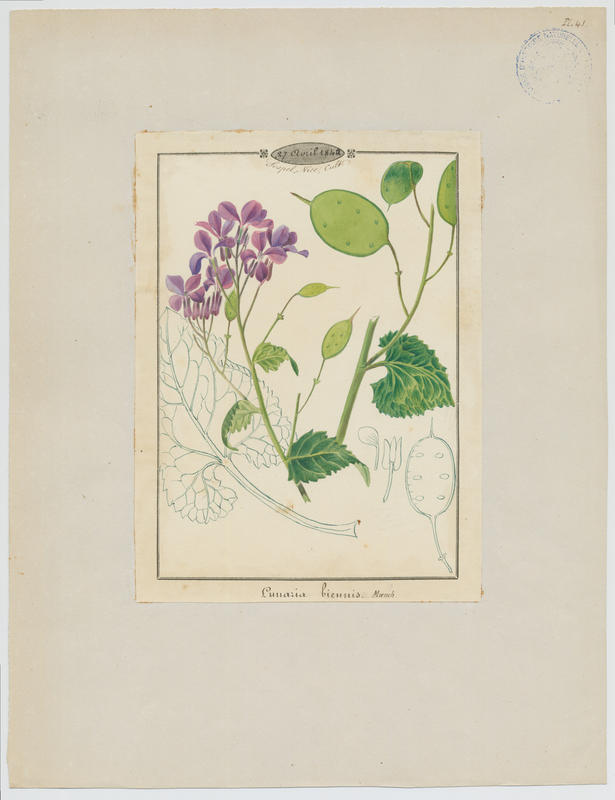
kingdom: Plantae
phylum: Tracheophyta
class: Magnoliopsida
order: Brassicales
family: Brassicaceae
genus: Lunaria
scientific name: Lunaria annua
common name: Honesty
